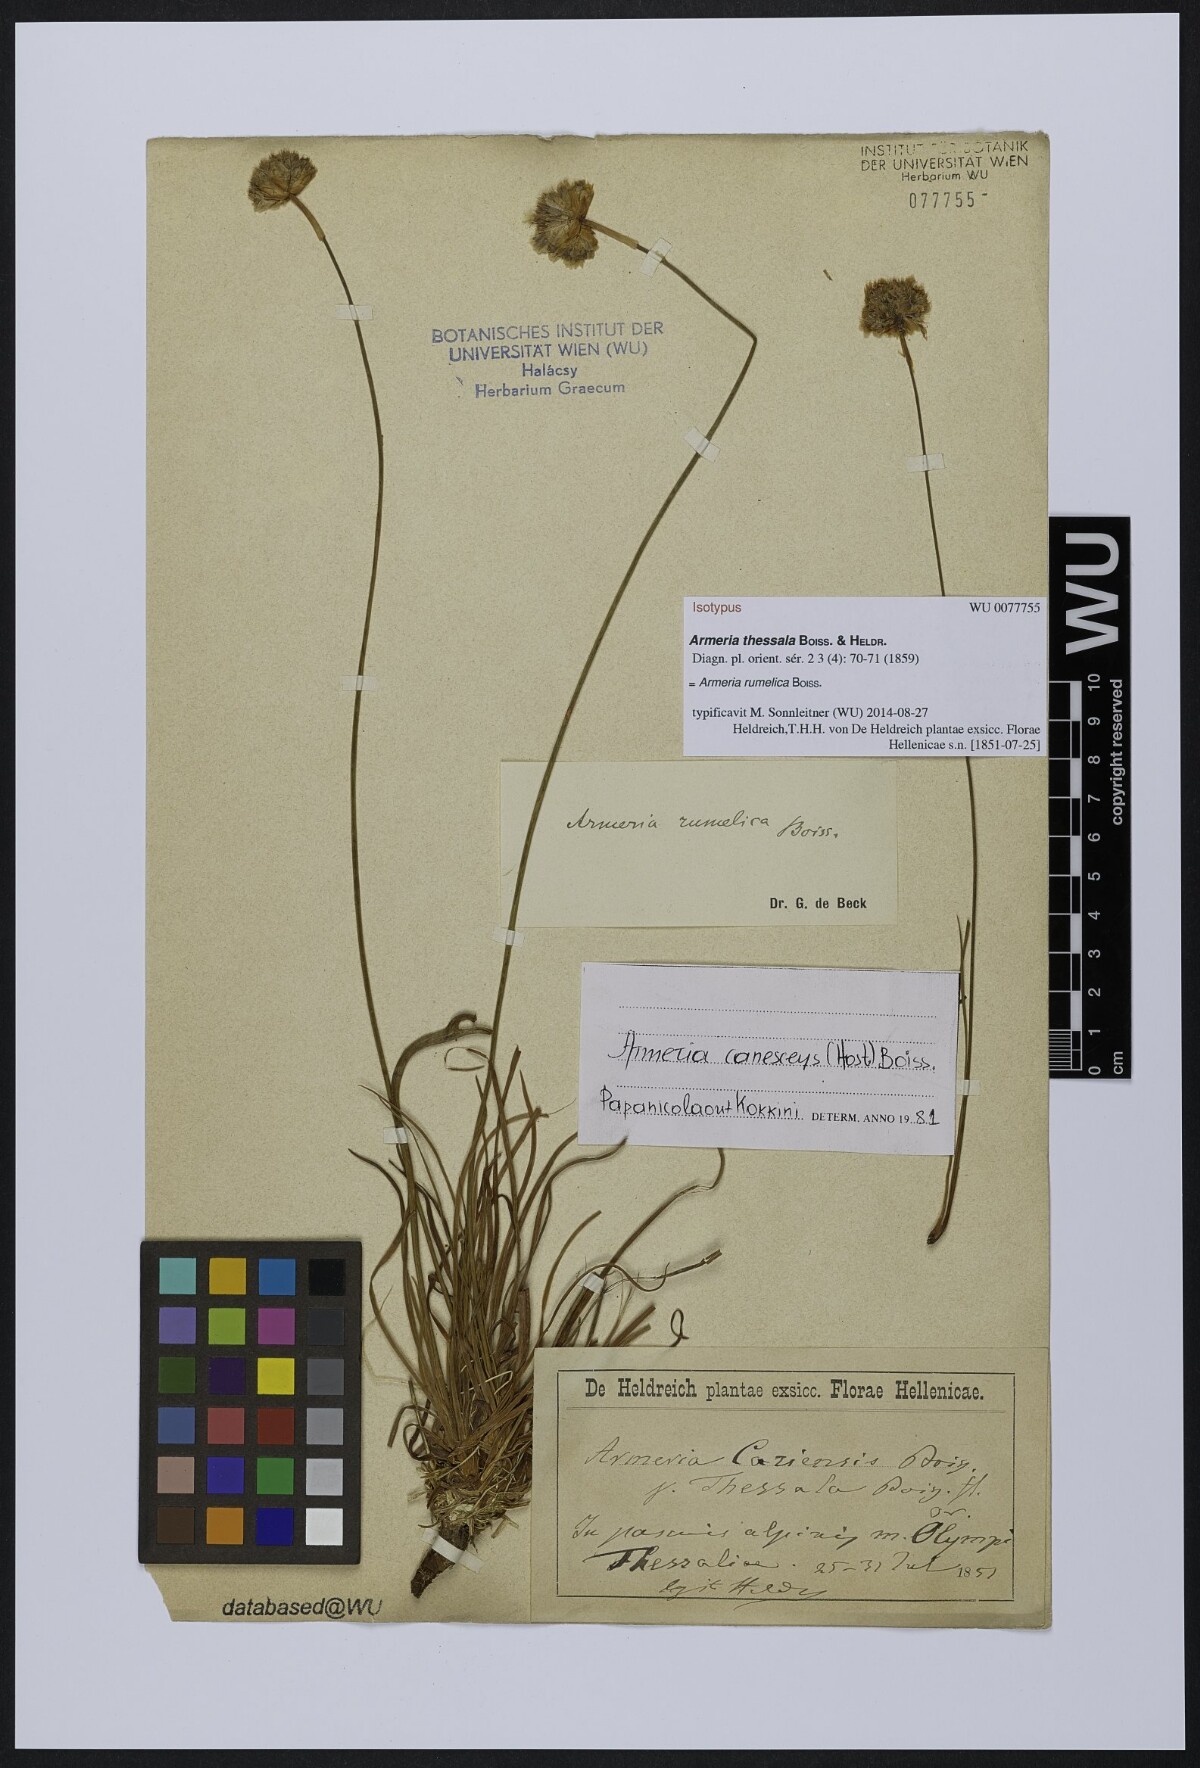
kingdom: Plantae
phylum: Tracheophyta
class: Magnoliopsida
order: Caryophyllales
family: Plumbaginaceae
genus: Armeria
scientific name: Armeria rumelica
